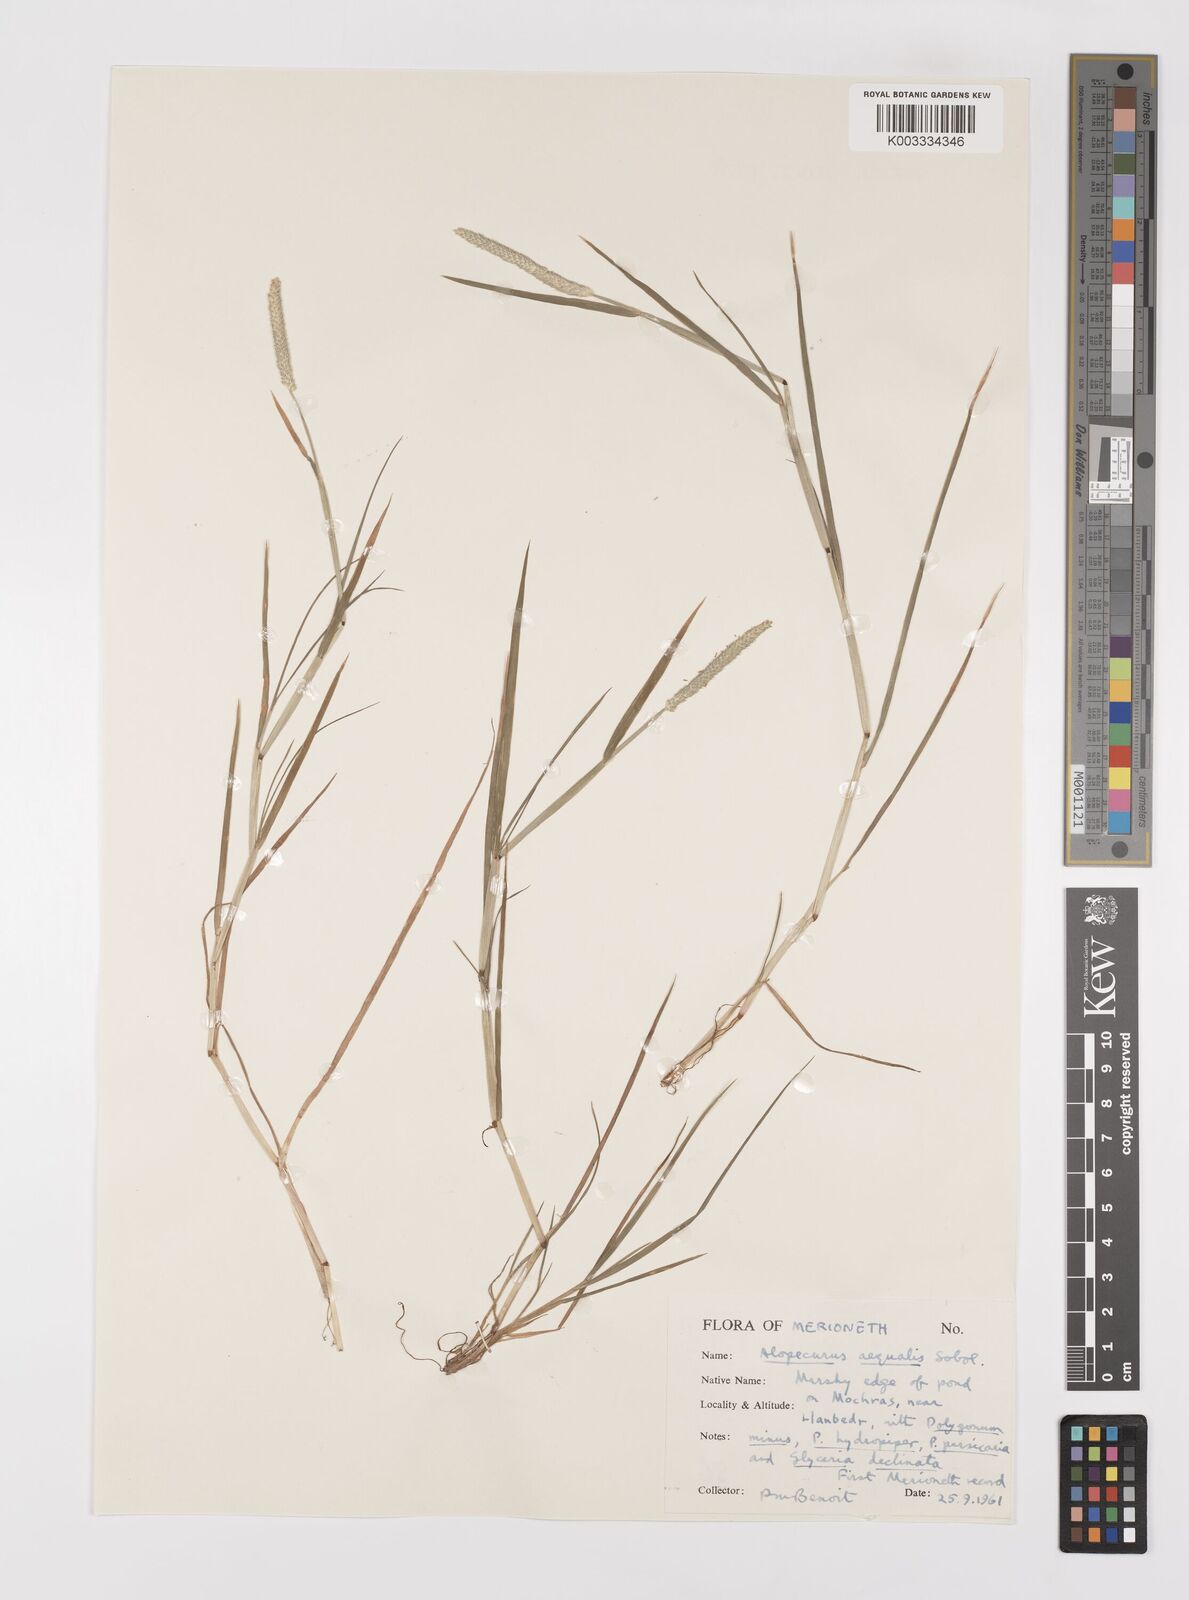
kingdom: Plantae
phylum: Tracheophyta
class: Liliopsida
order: Poales
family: Poaceae
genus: Alopecurus
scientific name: Alopecurus aequalis
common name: Orange foxtail
